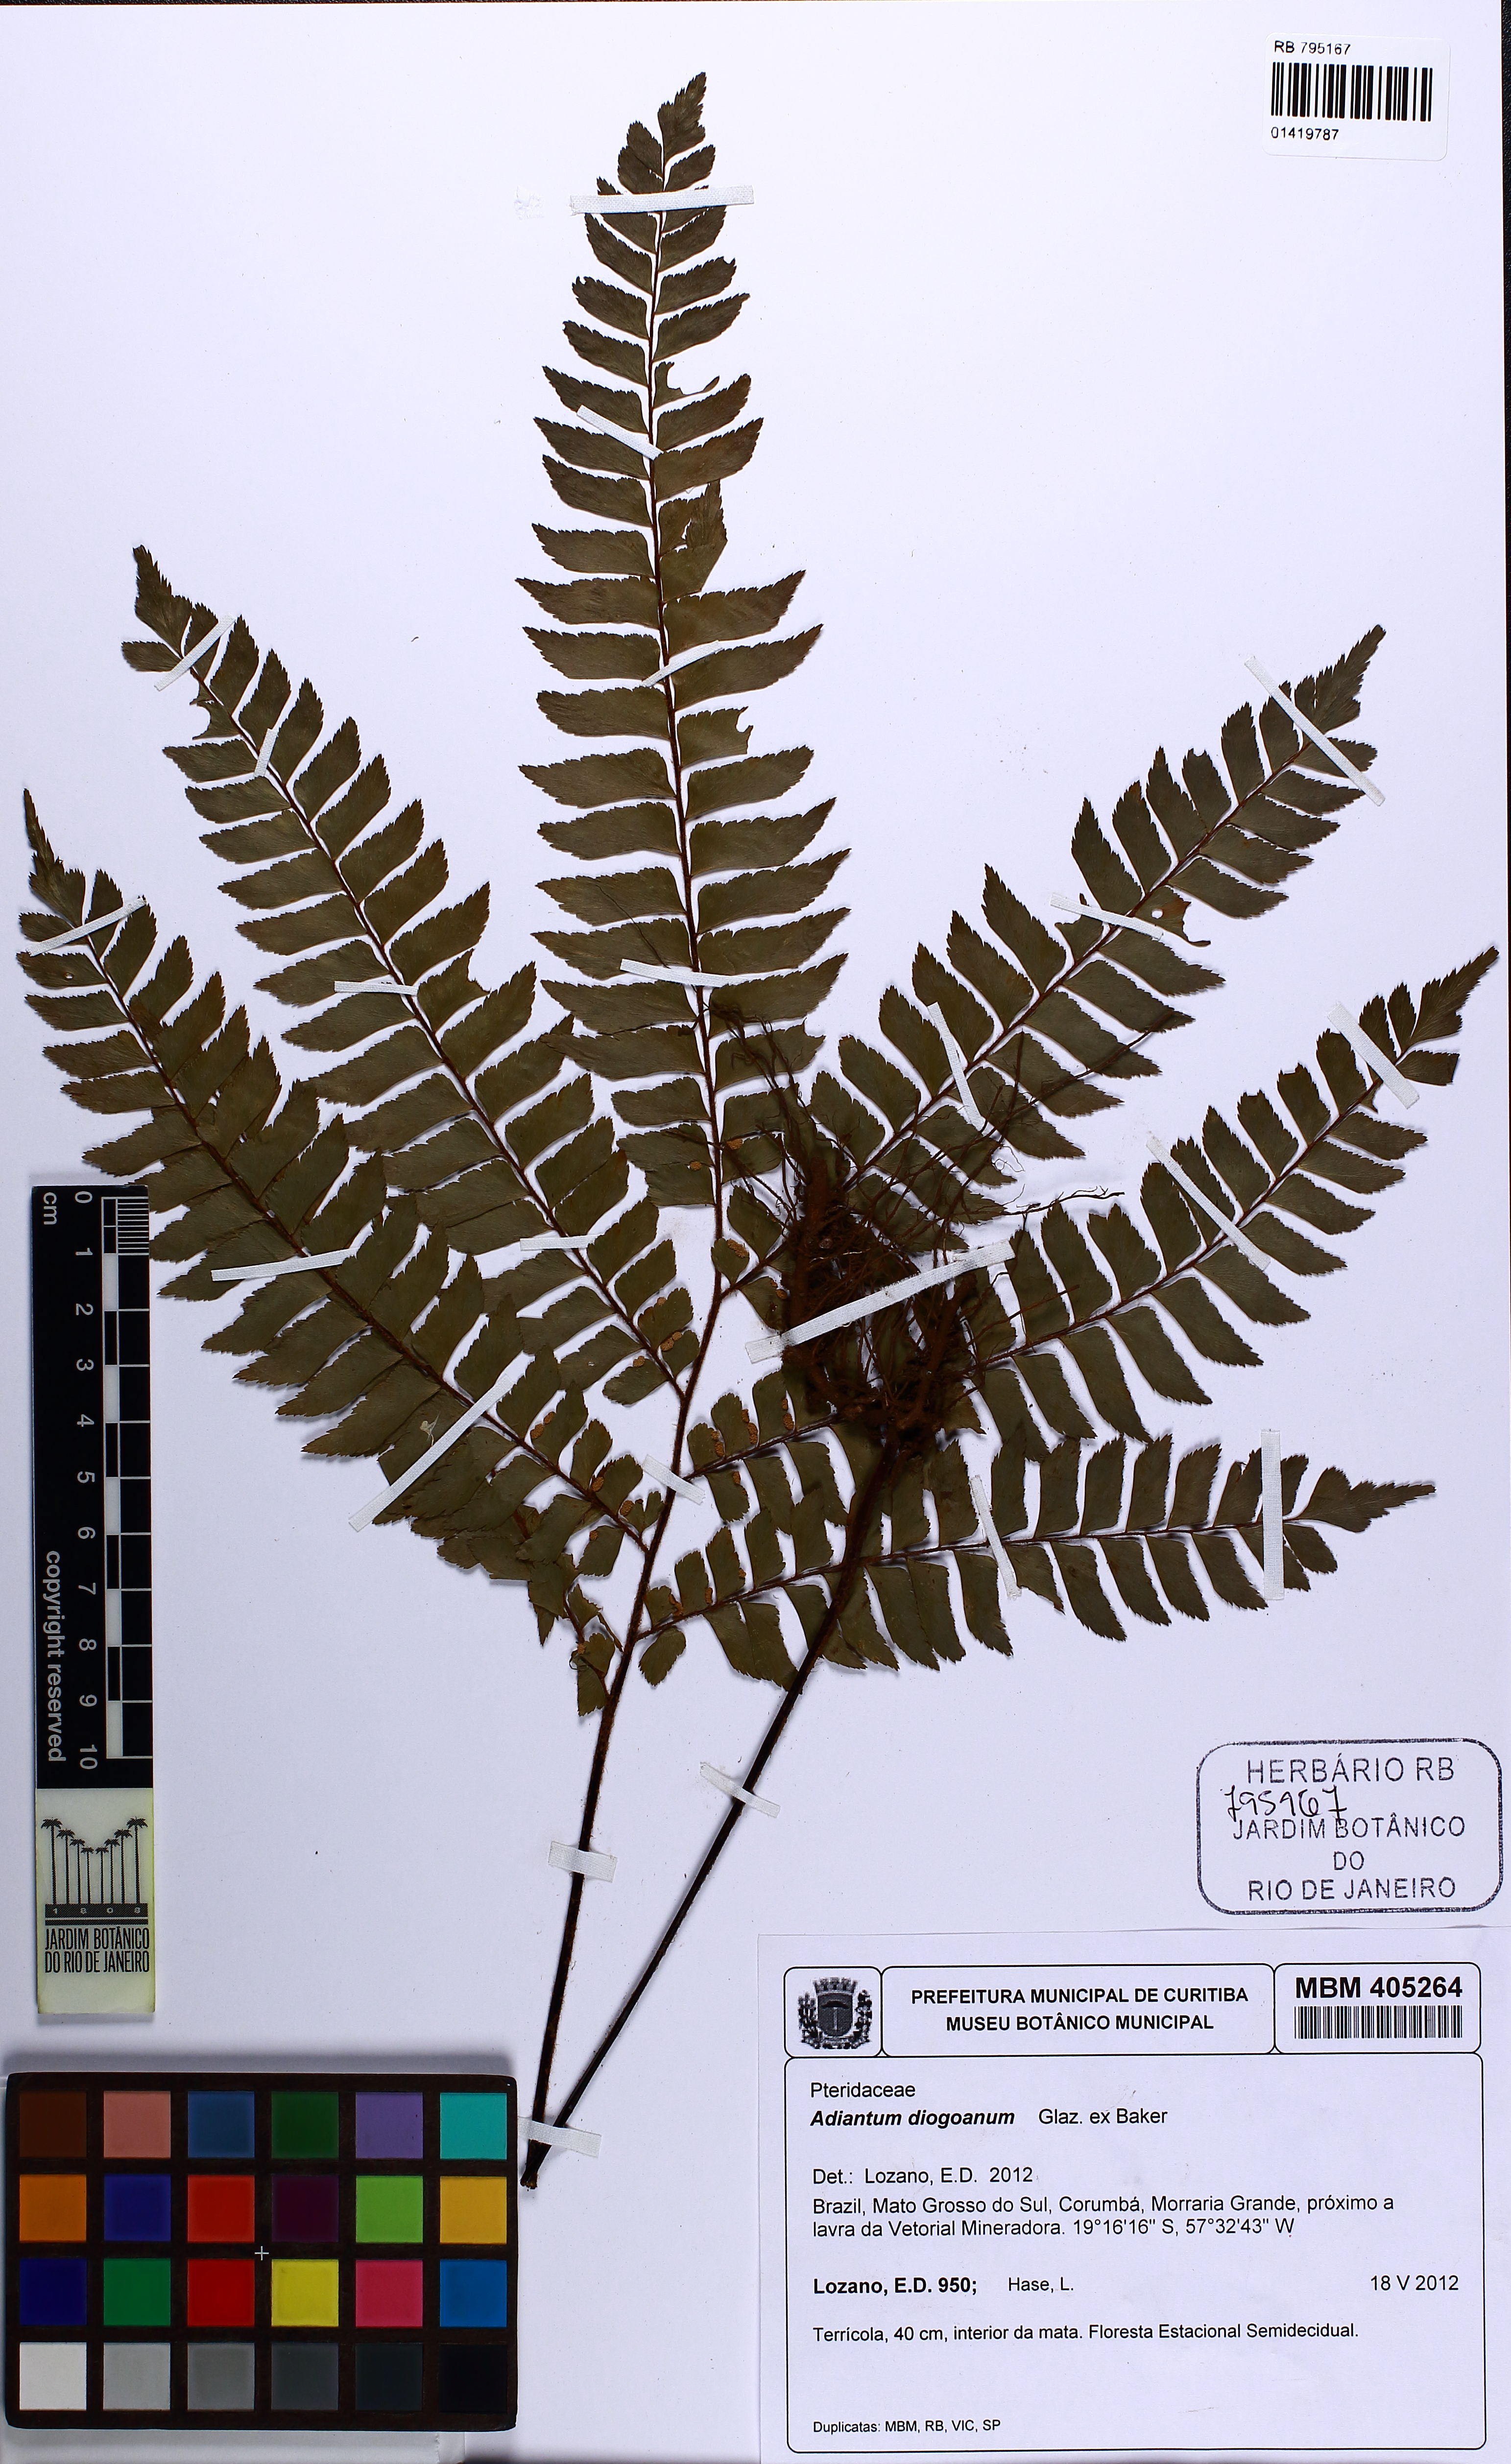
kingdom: Plantae
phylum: Tracheophyta
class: Polypodiopsida
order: Polypodiales
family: Pteridaceae
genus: Adiantum
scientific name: Adiantum diogoanum
